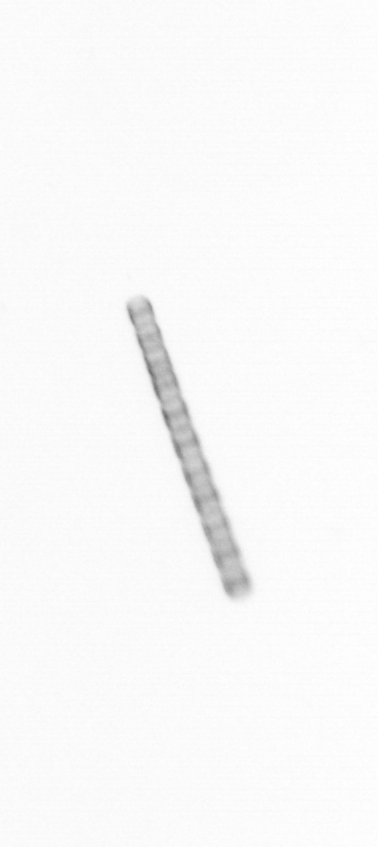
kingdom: Chromista
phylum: Ochrophyta
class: Bacillariophyceae
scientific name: Bacillariophyceae
